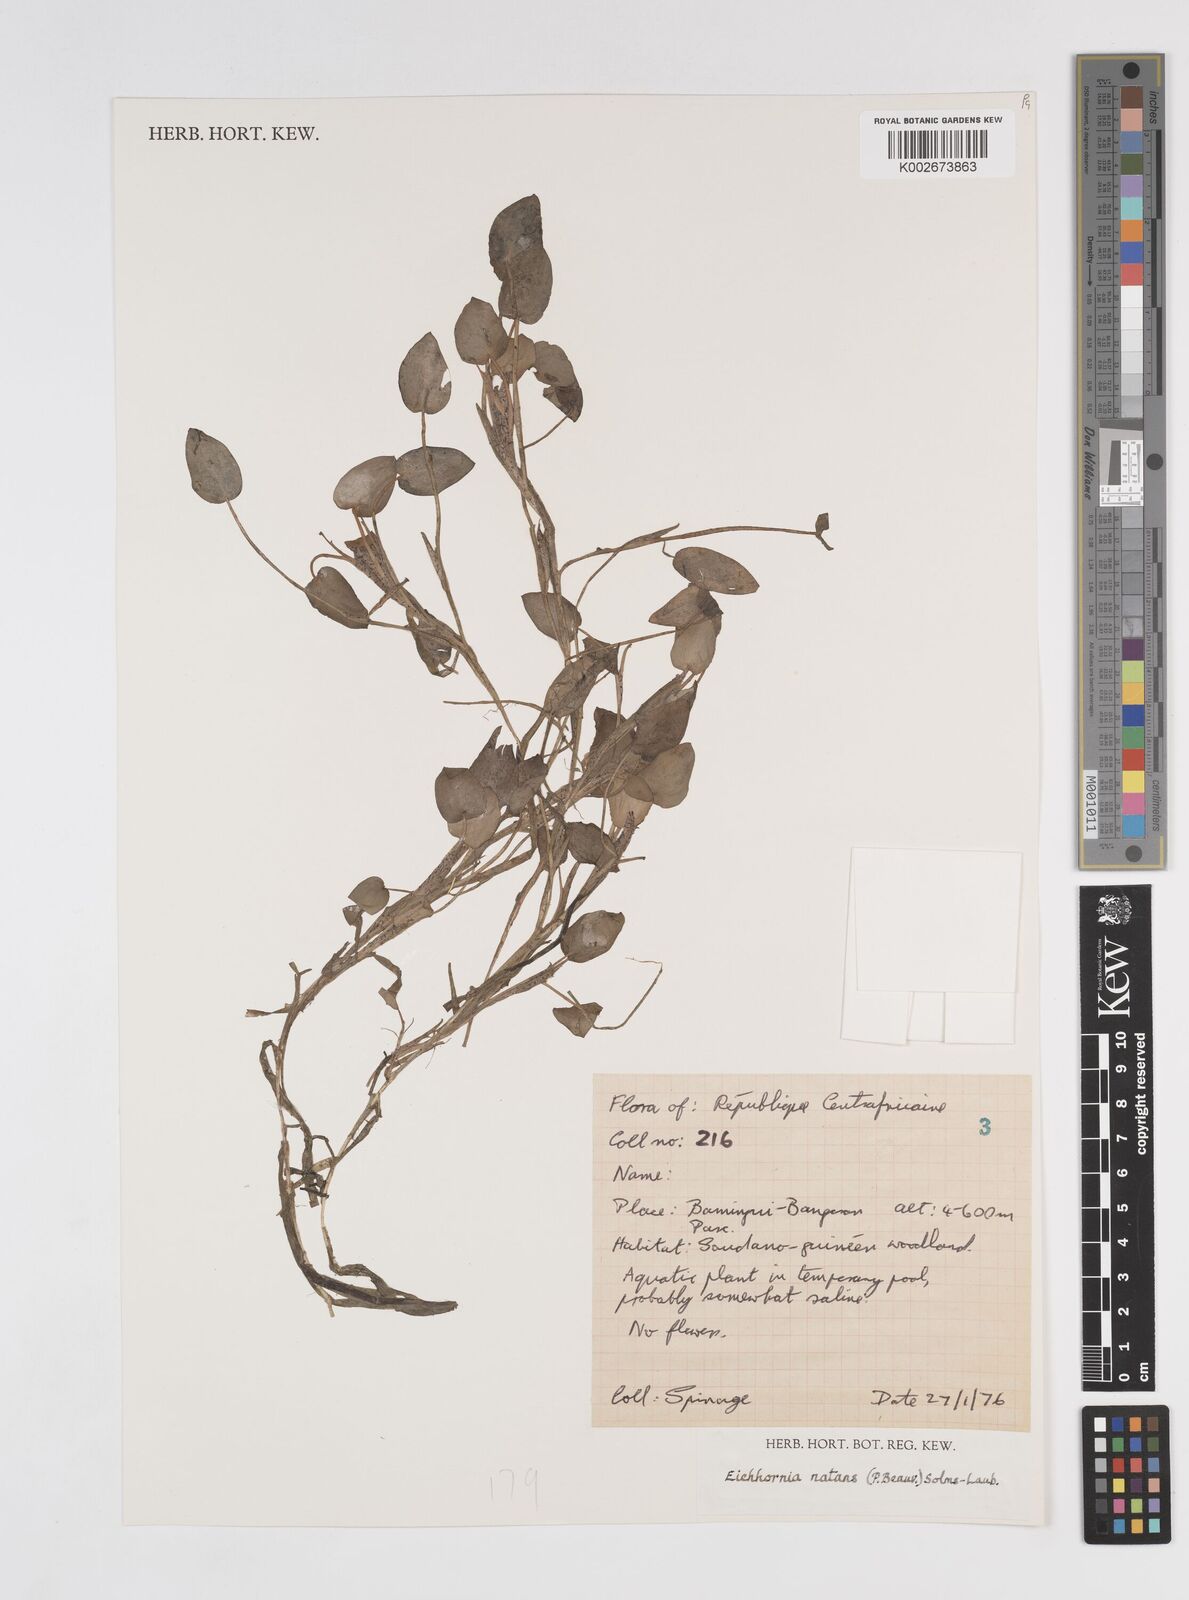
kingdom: Plantae
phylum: Tracheophyta
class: Liliopsida
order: Commelinales
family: Pontederiaceae
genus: Pontederia
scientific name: Pontederia natans
